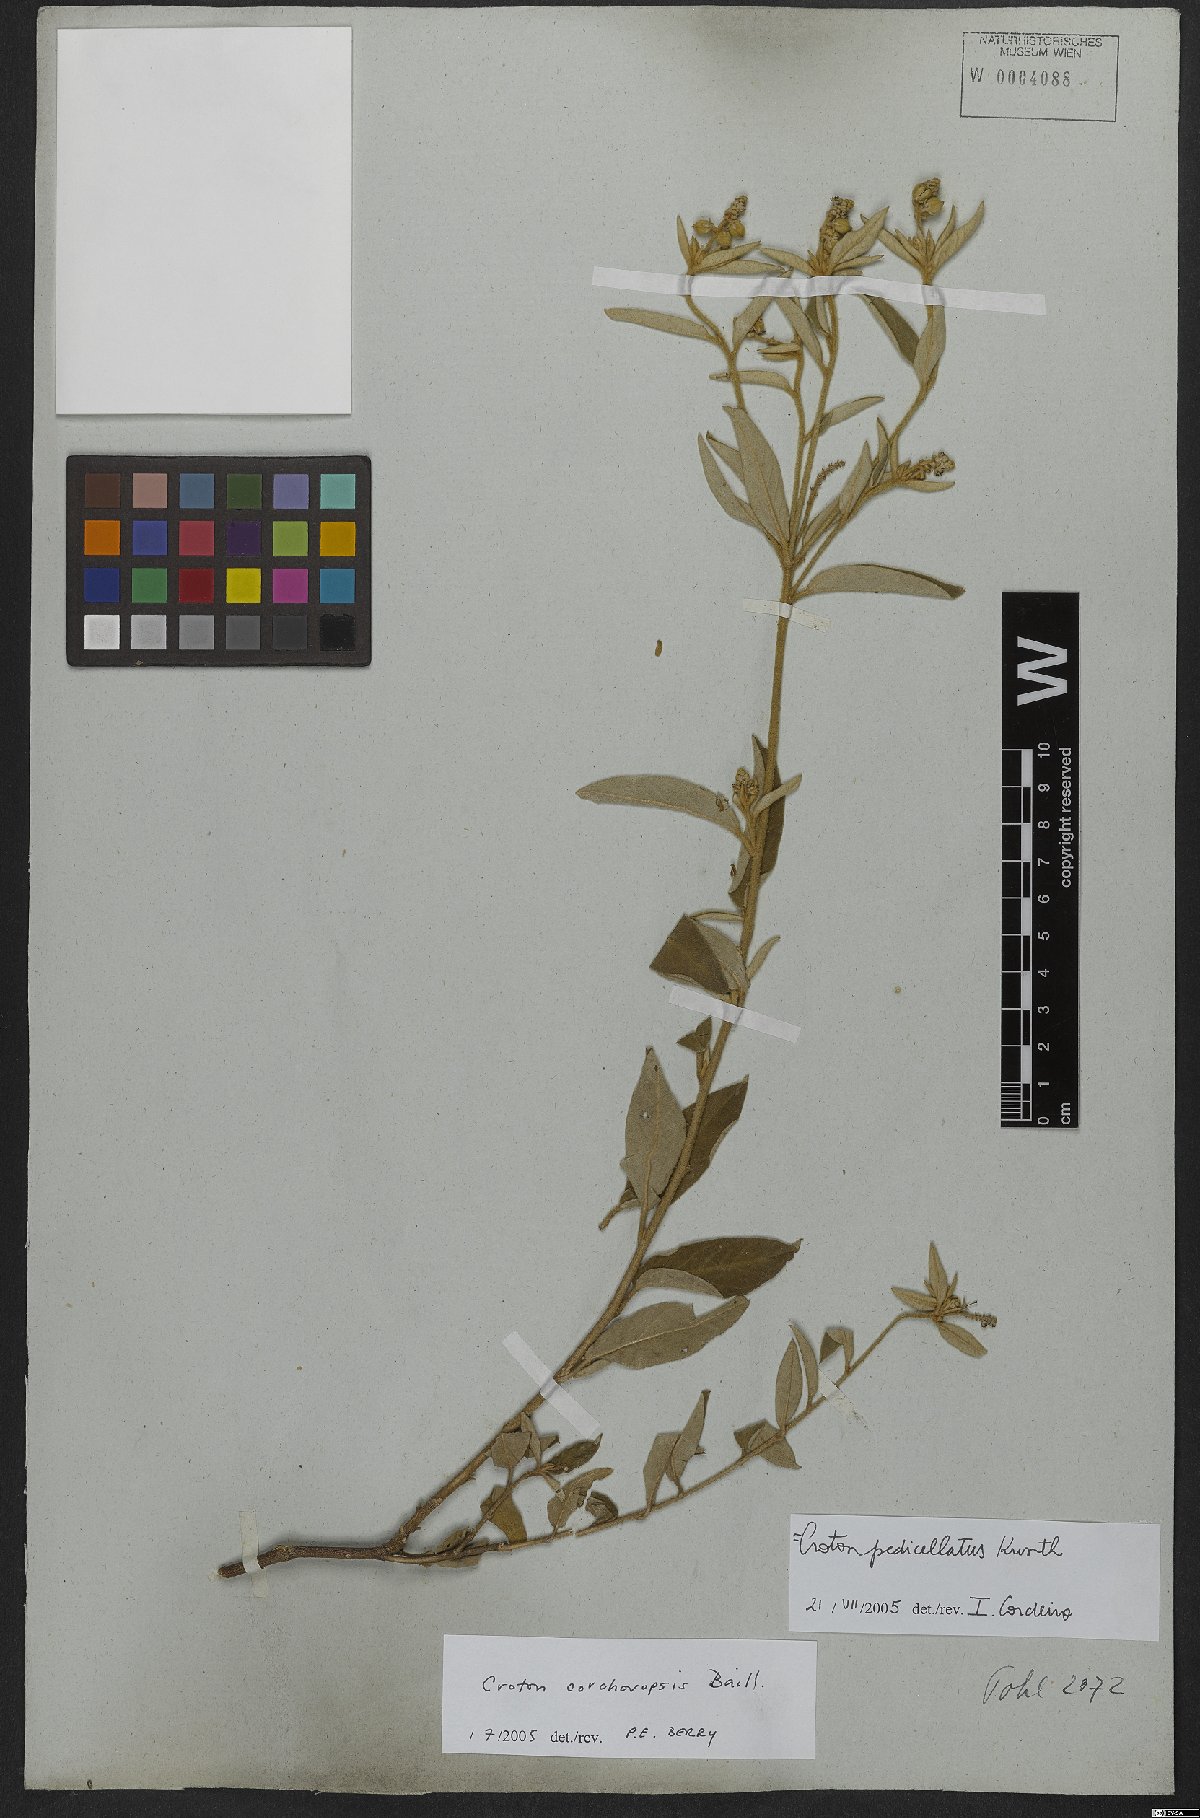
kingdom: Plantae
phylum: Tracheophyta
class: Magnoliopsida
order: Malpighiales
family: Euphorbiaceae
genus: Croton
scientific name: Croton corchoropsis
